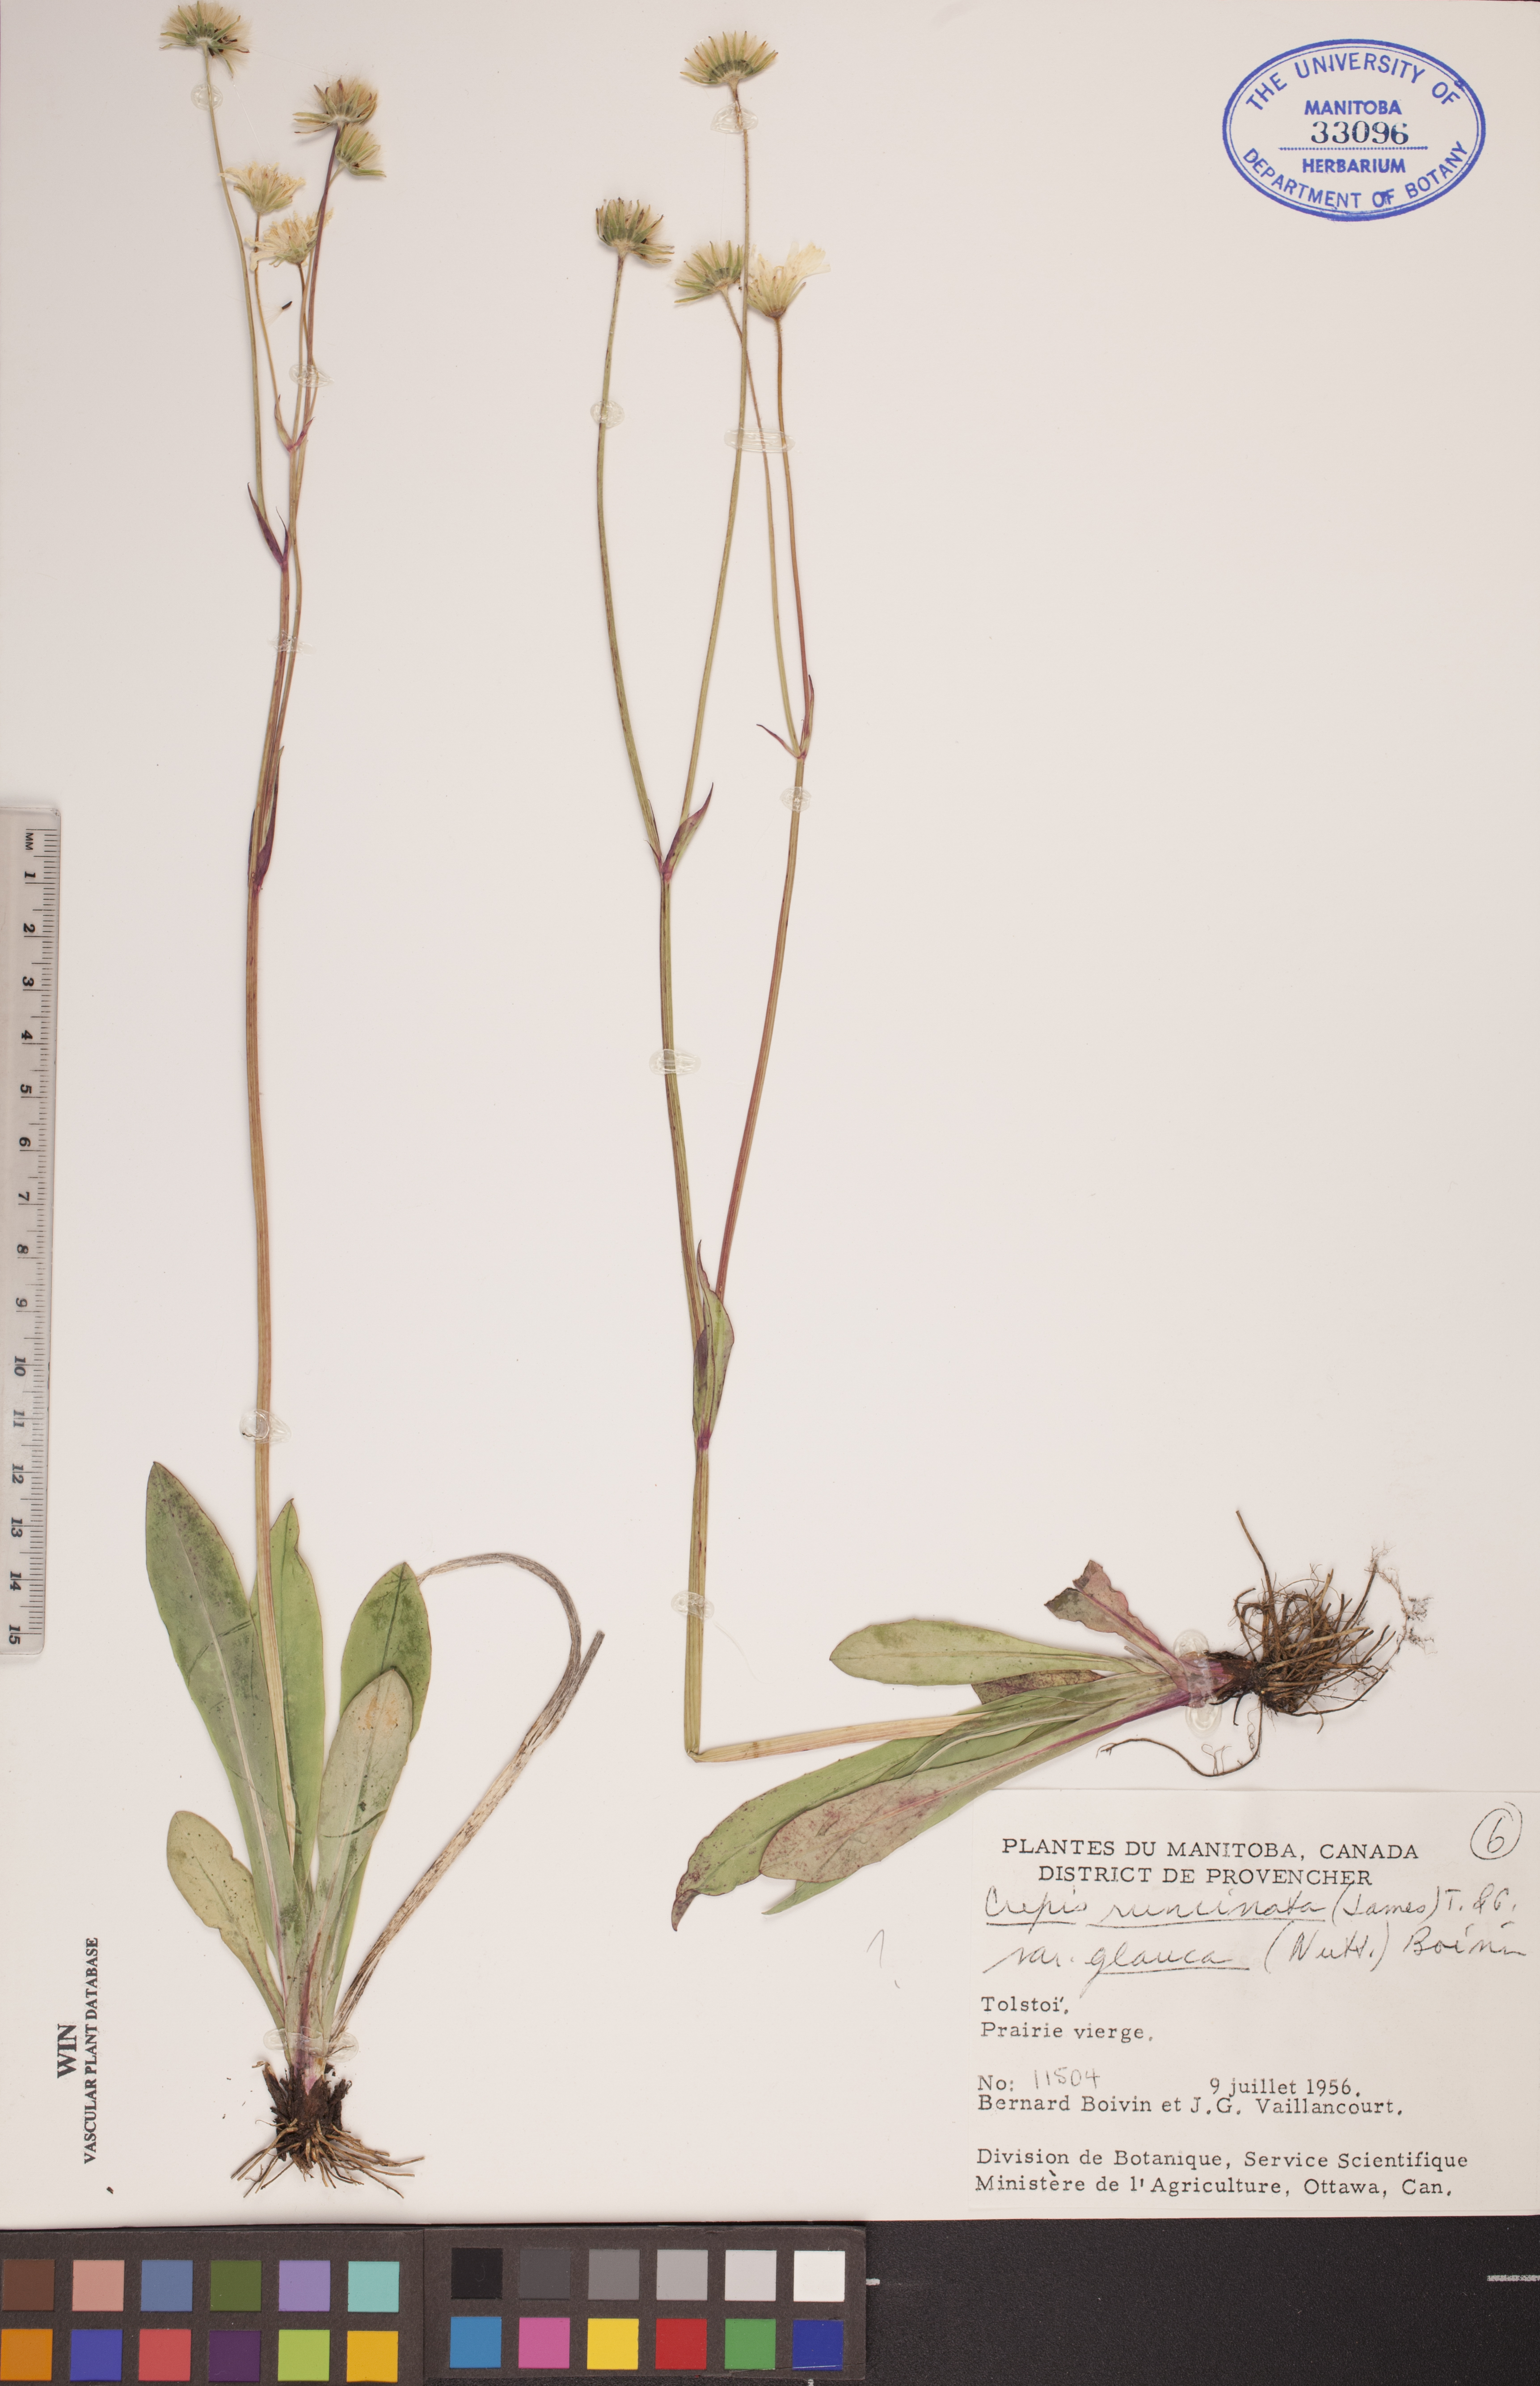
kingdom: Plantae
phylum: Tracheophyta
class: Magnoliopsida
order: Asterales
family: Asteraceae
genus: Crepis
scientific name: Crepis runcinata
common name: Dandelion hawksbeard
